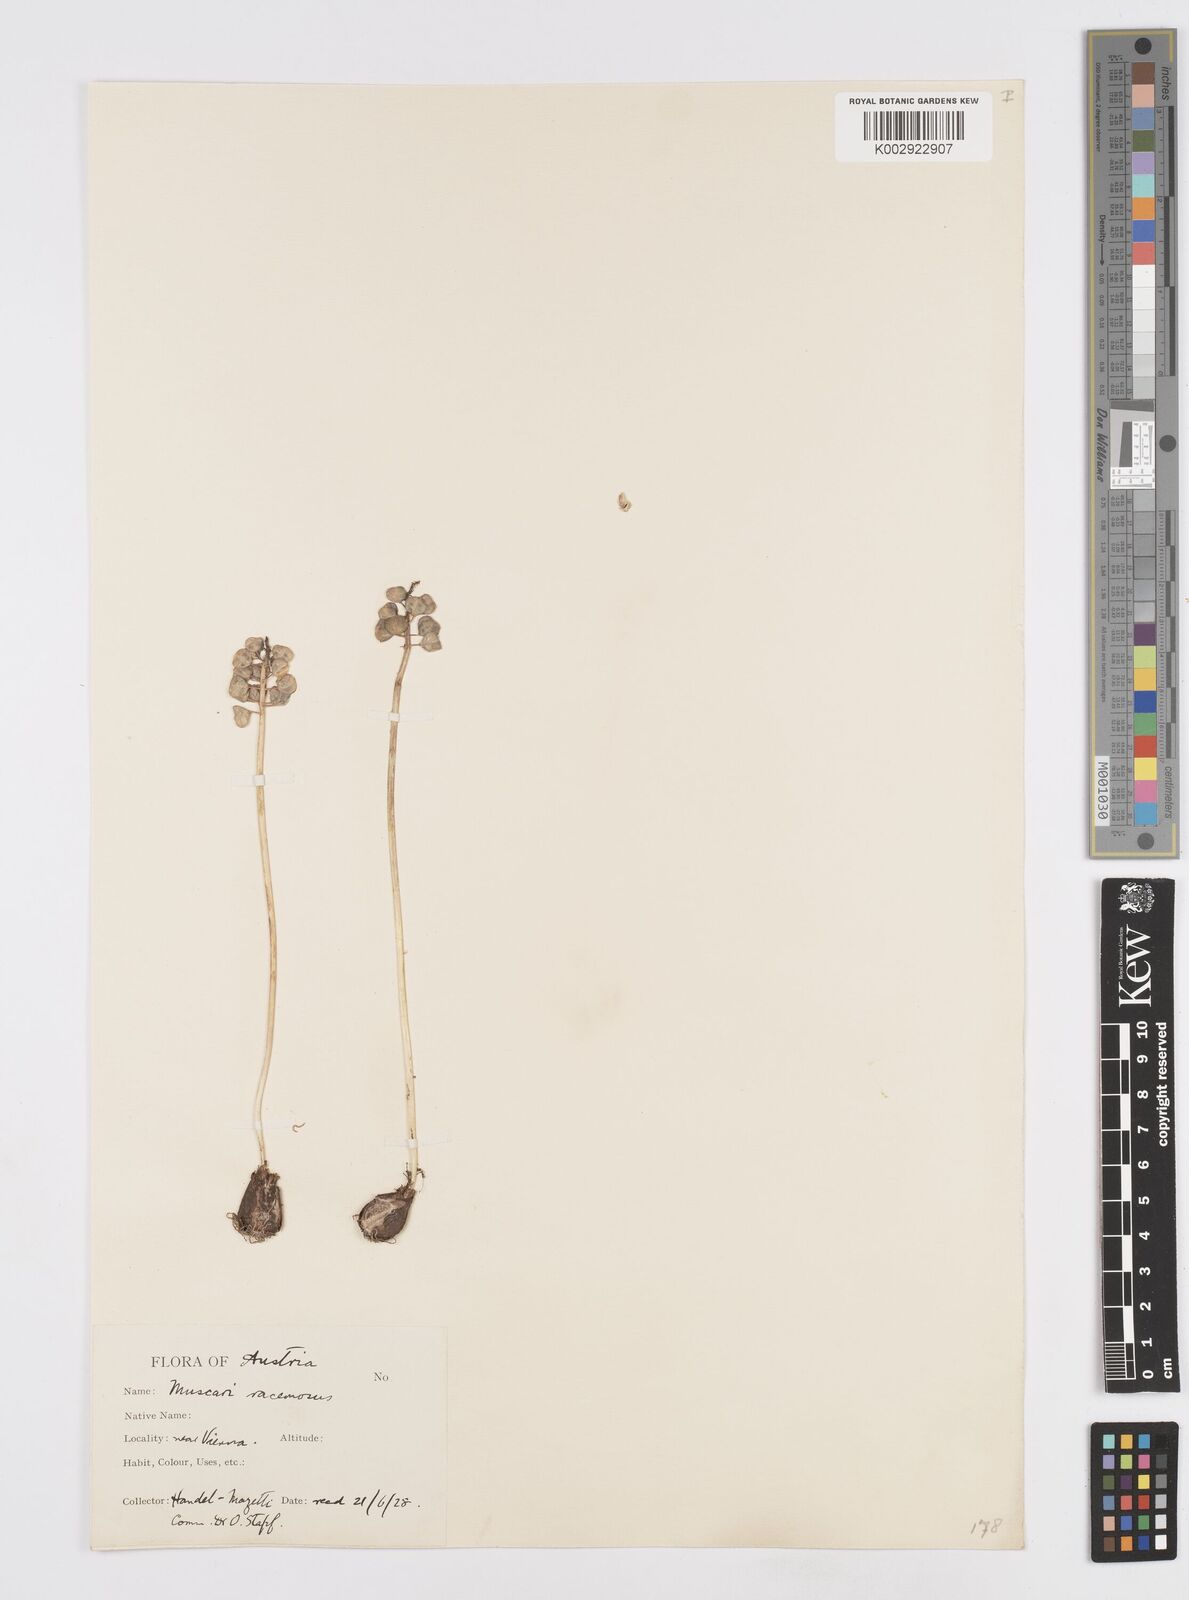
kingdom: Plantae
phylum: Tracheophyta
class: Liliopsida
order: Asparagales
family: Asparagaceae
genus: Muscarimia
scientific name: Muscarimia muscari
